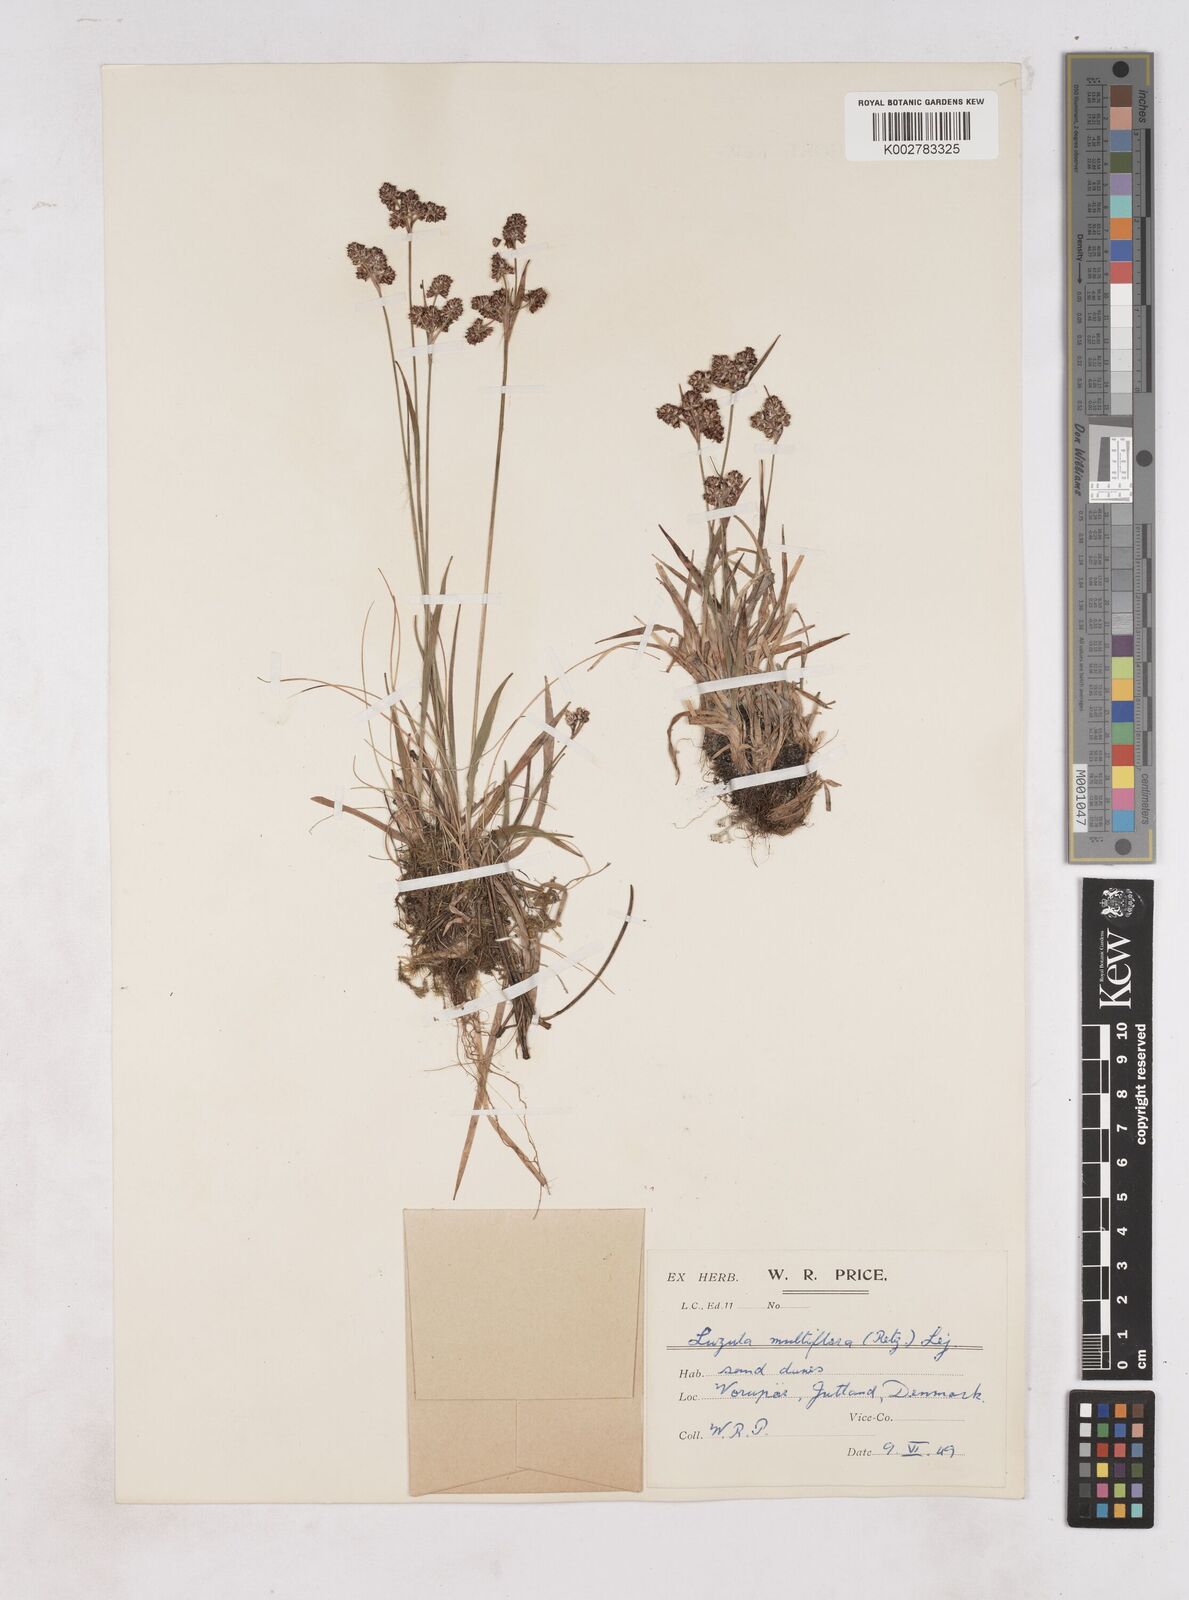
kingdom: Plantae
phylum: Tracheophyta
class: Liliopsida
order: Poales
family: Juncaceae
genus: Luzula
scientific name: Luzula multiflora
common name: Heath wood-rush
